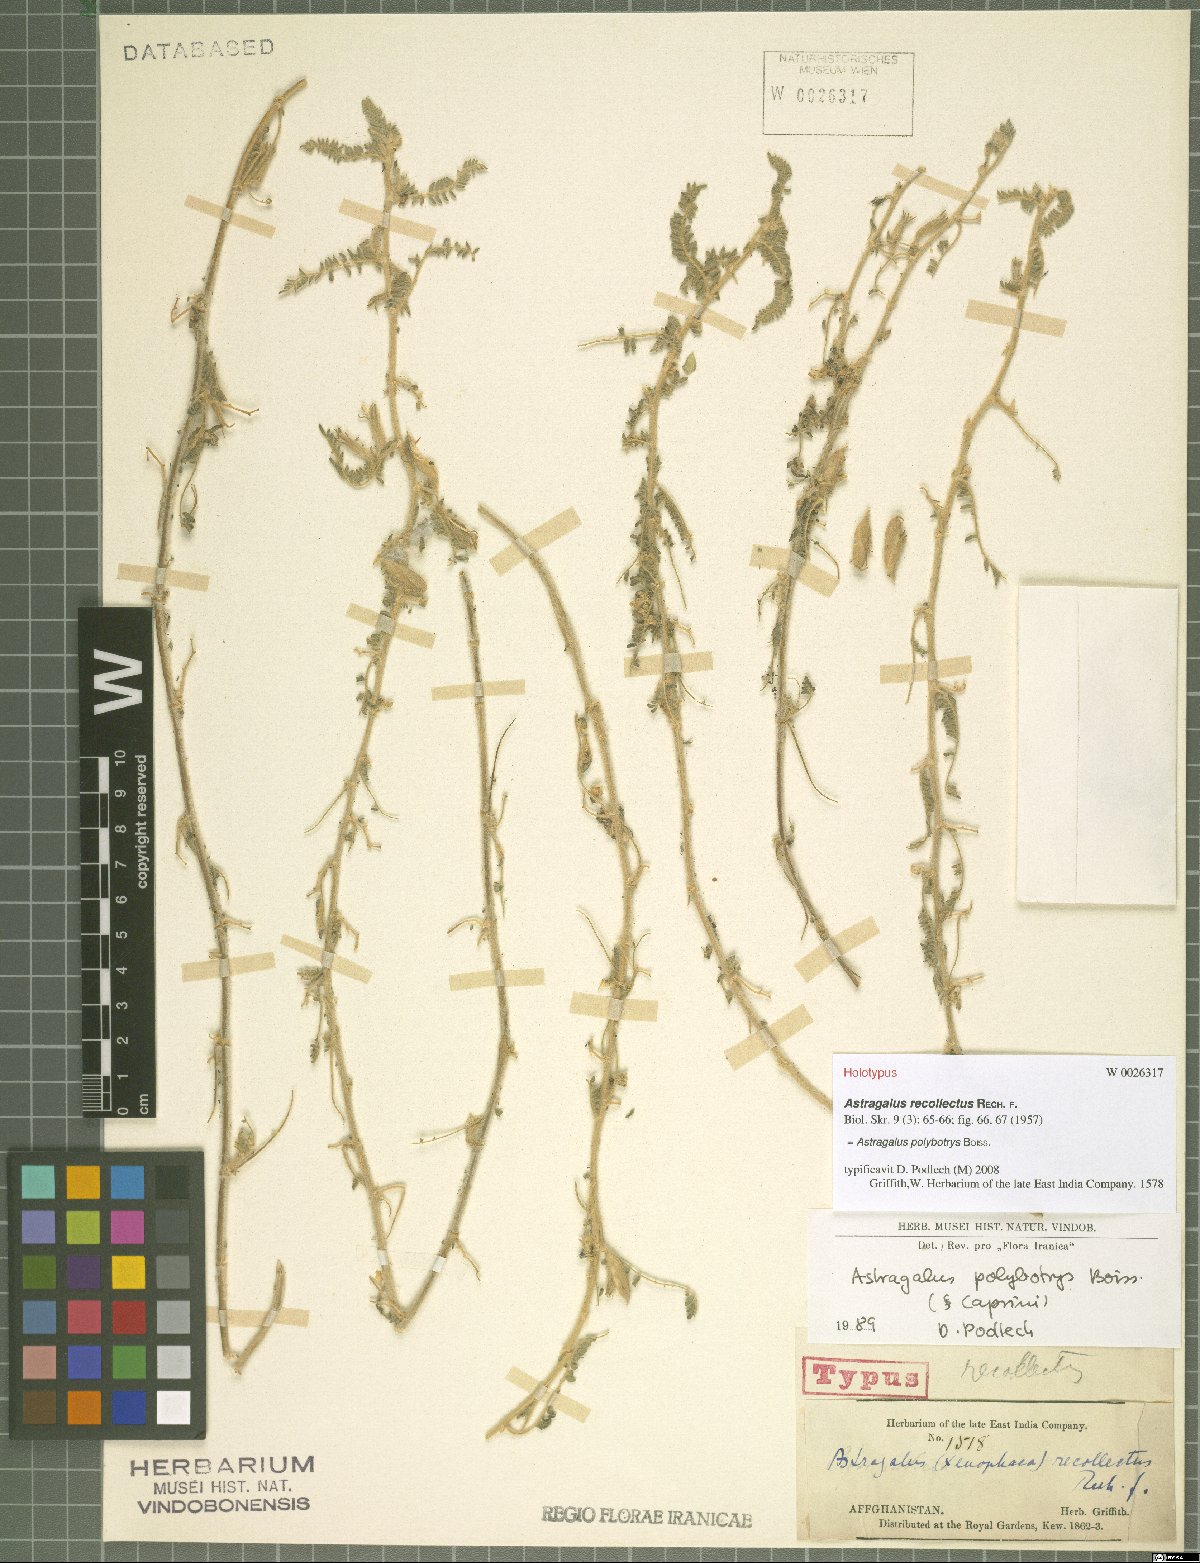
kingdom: Plantae
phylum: Tracheophyta
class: Magnoliopsida
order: Fabales
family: Fabaceae
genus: Astragalus
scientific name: Astragalus polybotrys
